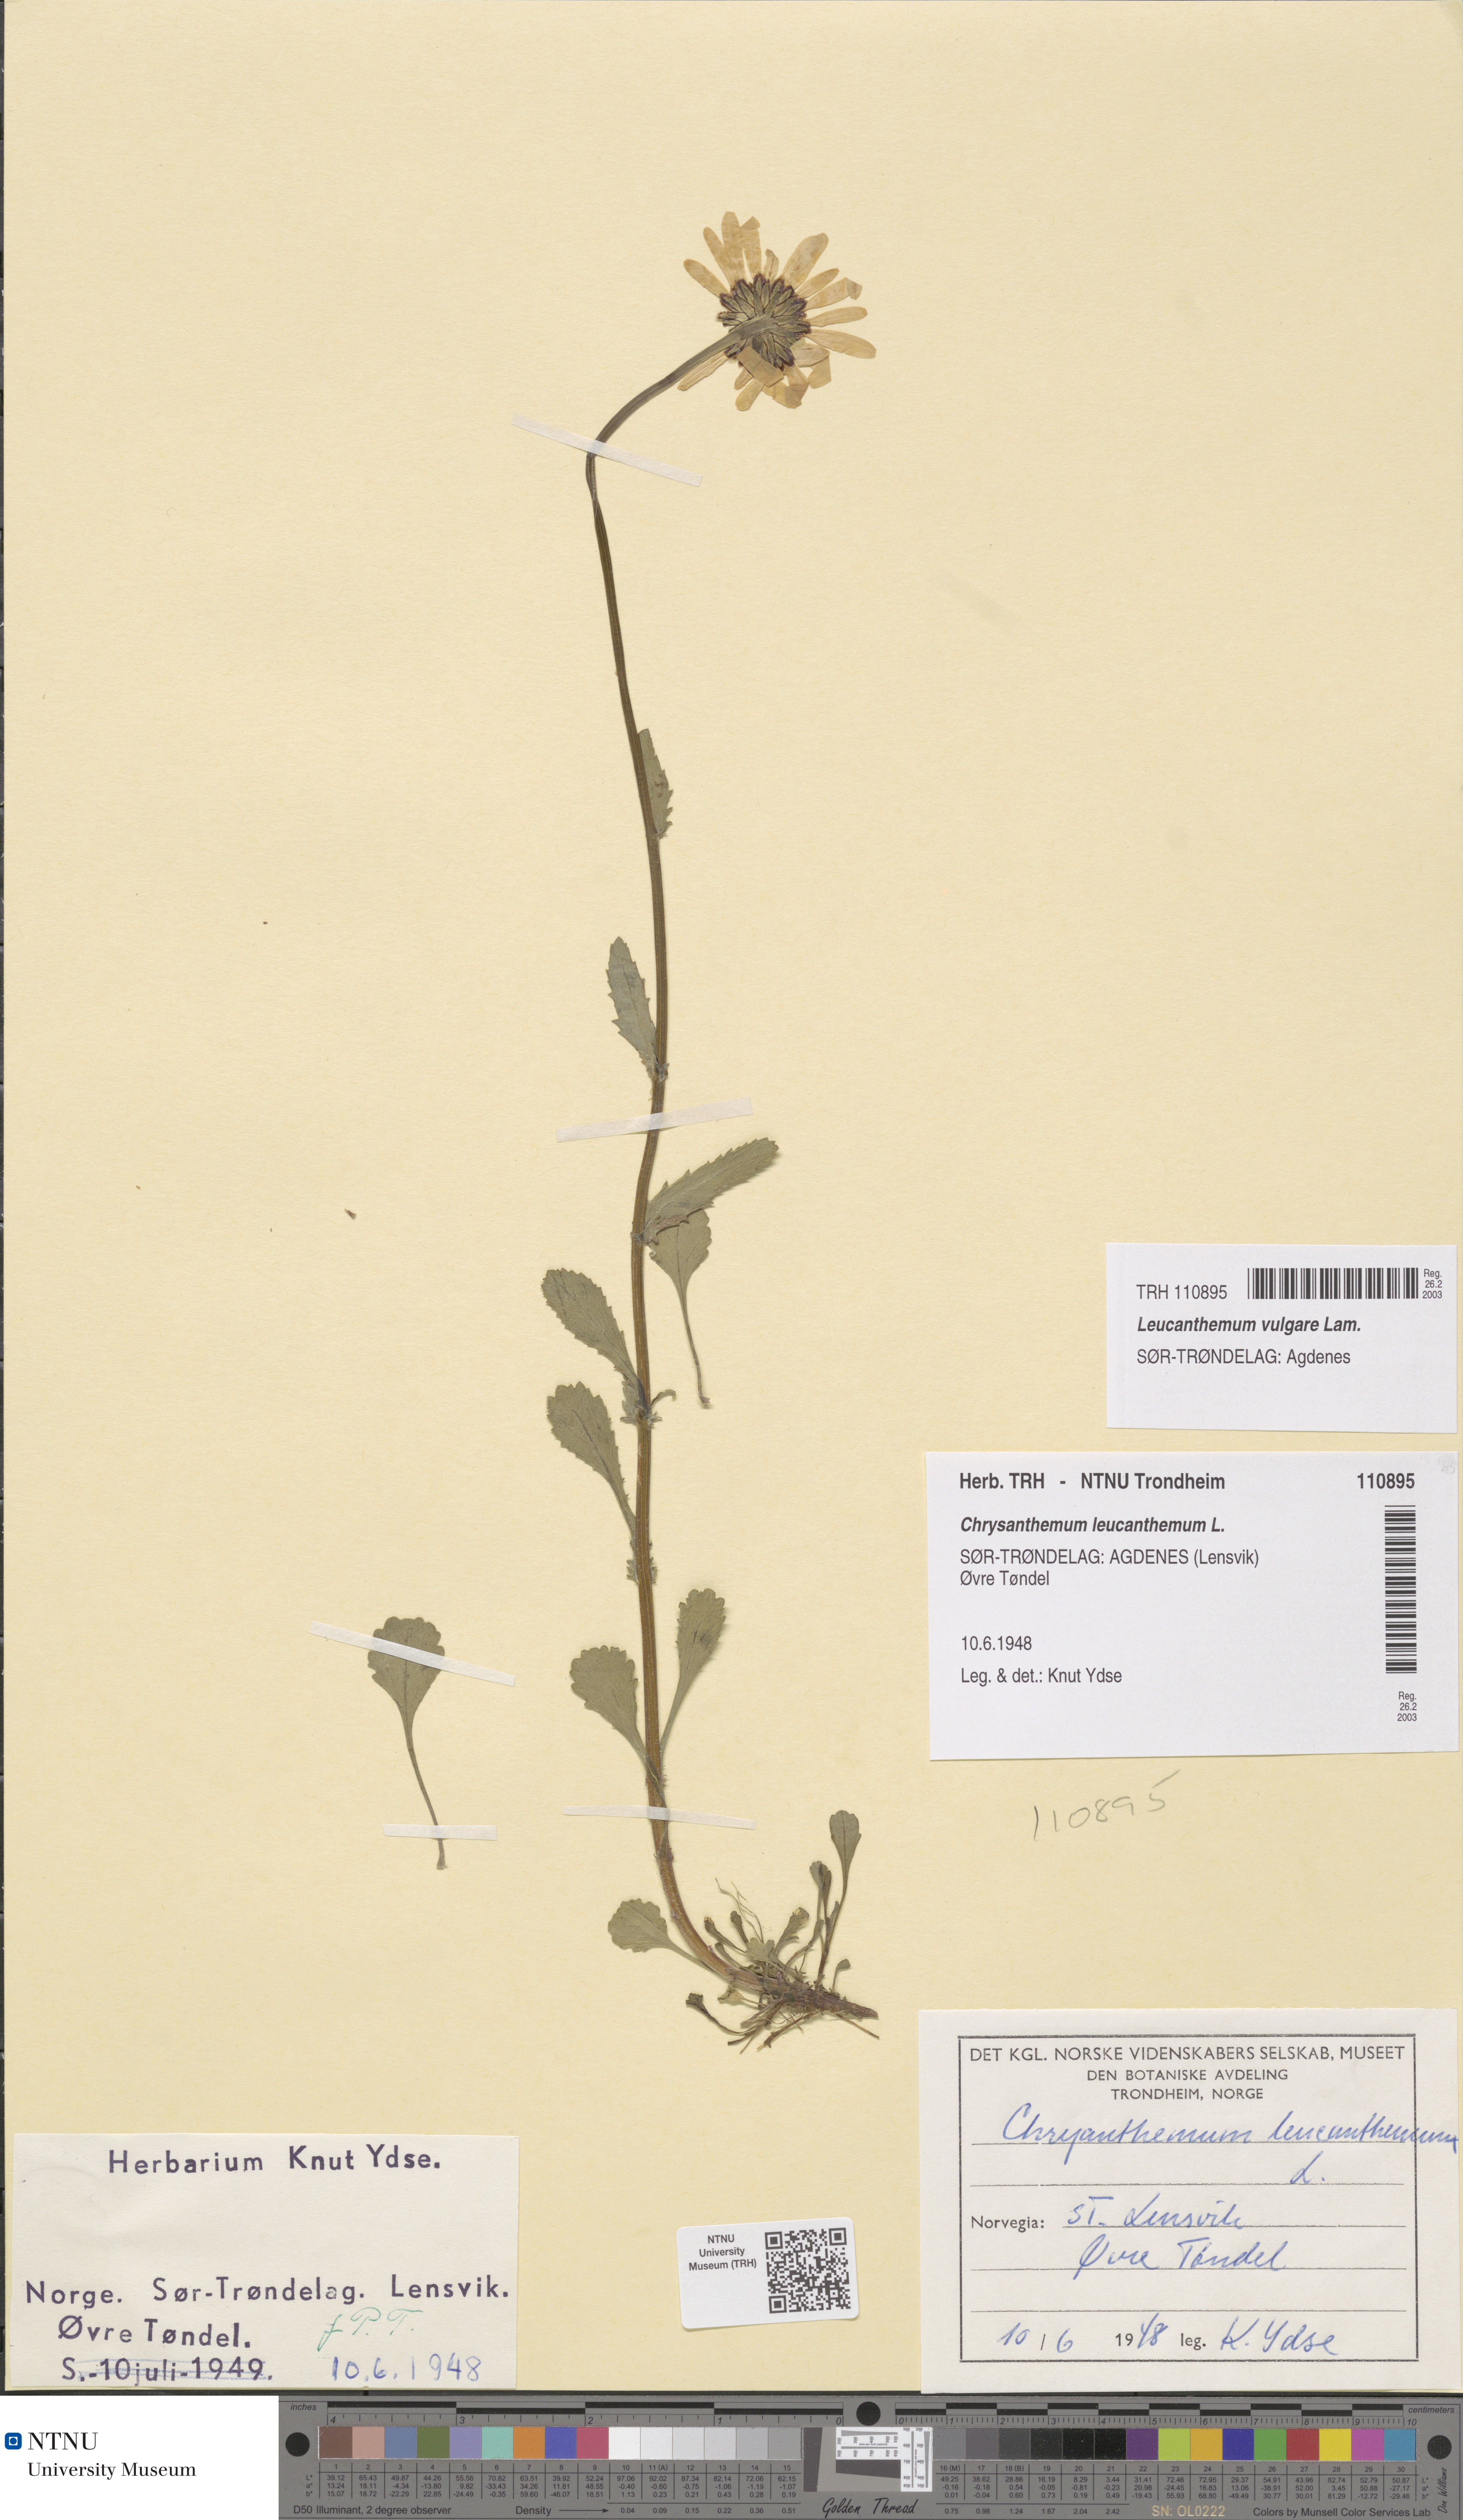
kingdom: Plantae
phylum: Tracheophyta
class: Magnoliopsida
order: Asterales
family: Asteraceae
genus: Leucanthemum
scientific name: Leucanthemum vulgare
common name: Oxeye daisy
